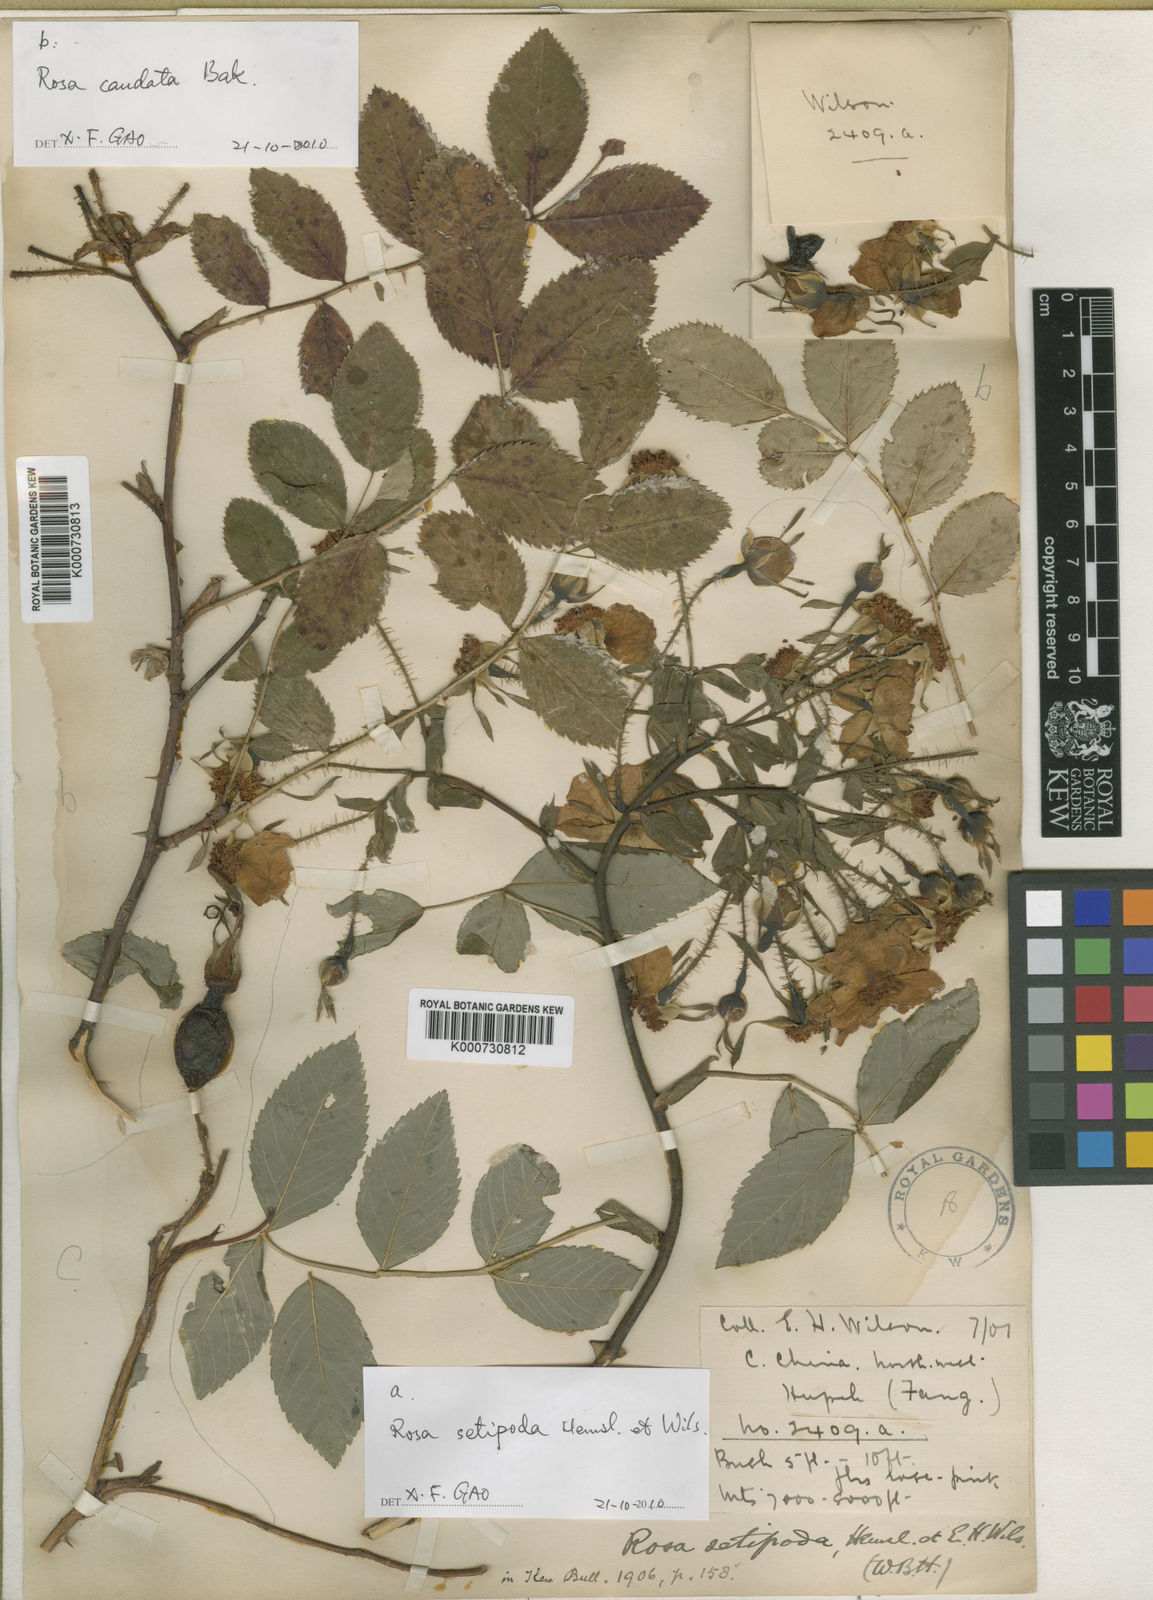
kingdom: Plantae
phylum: Tracheophyta
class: Magnoliopsida
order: Rosales
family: Rosaceae
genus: Rosa
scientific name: Rosa macrophylla
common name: Big-hip rose
